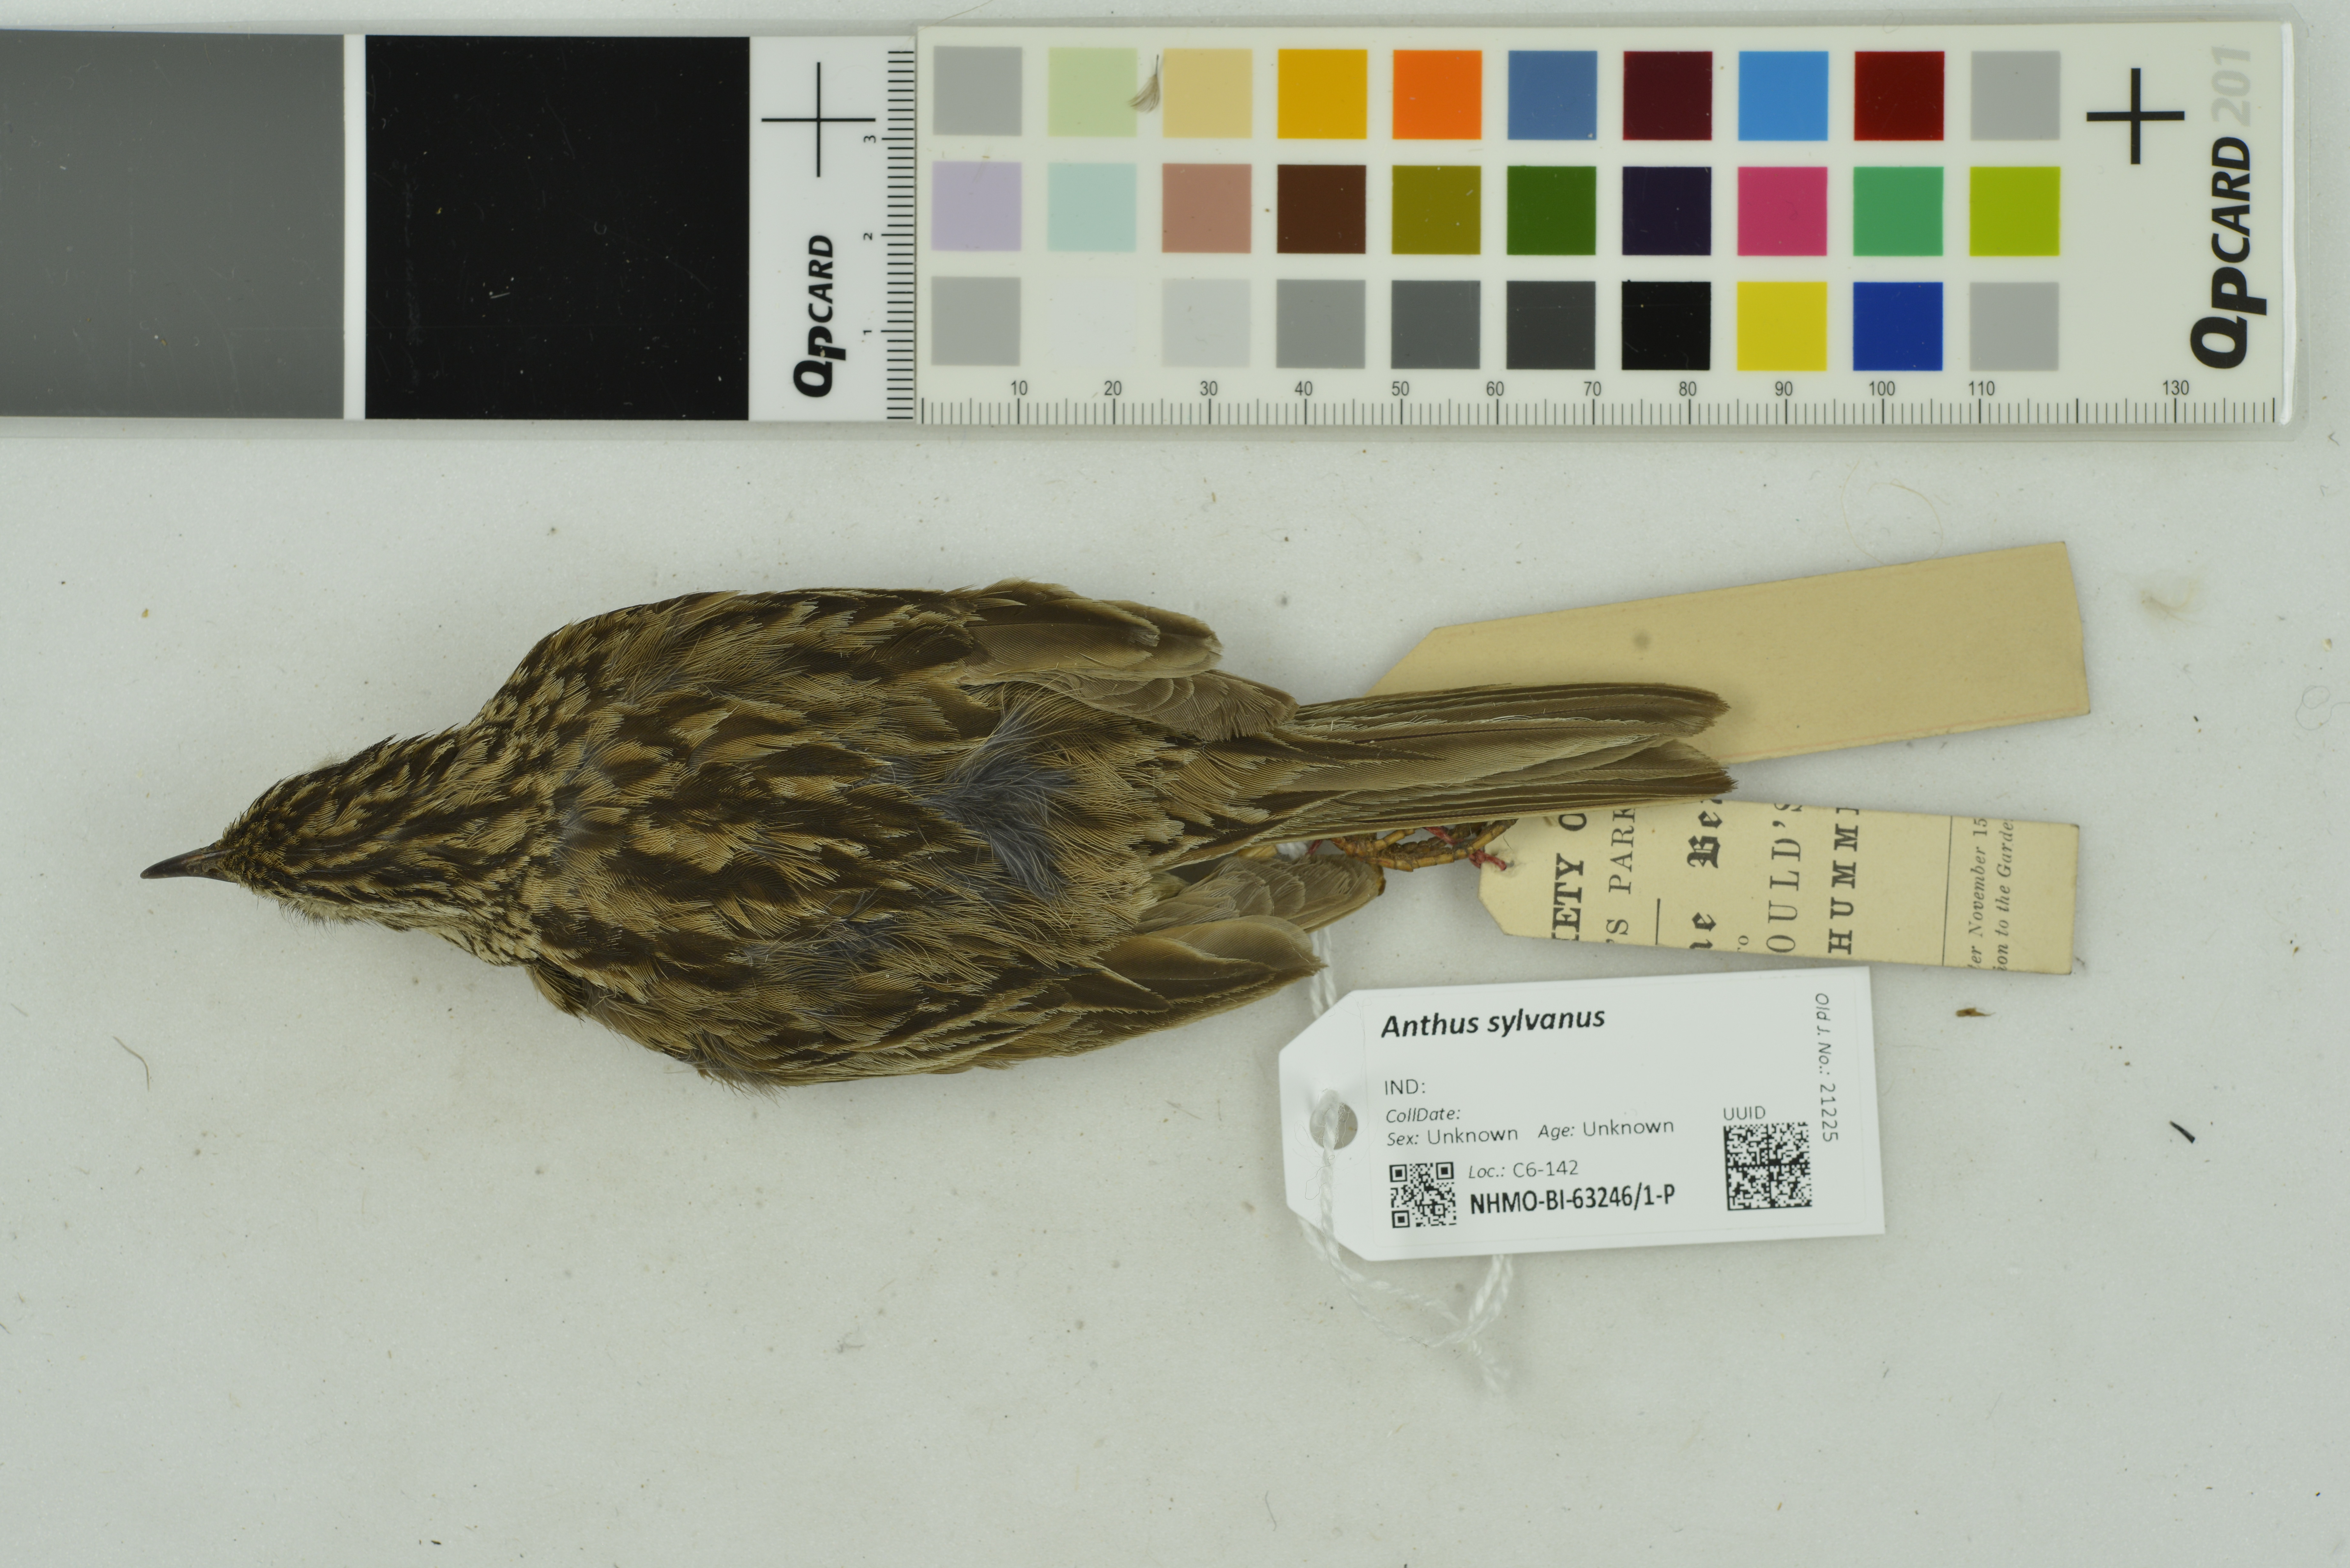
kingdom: Animalia
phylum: Chordata
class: Aves
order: Passeriformes
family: Motacillidae
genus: Anthus
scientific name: Anthus sylvanus
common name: Upland pipit
